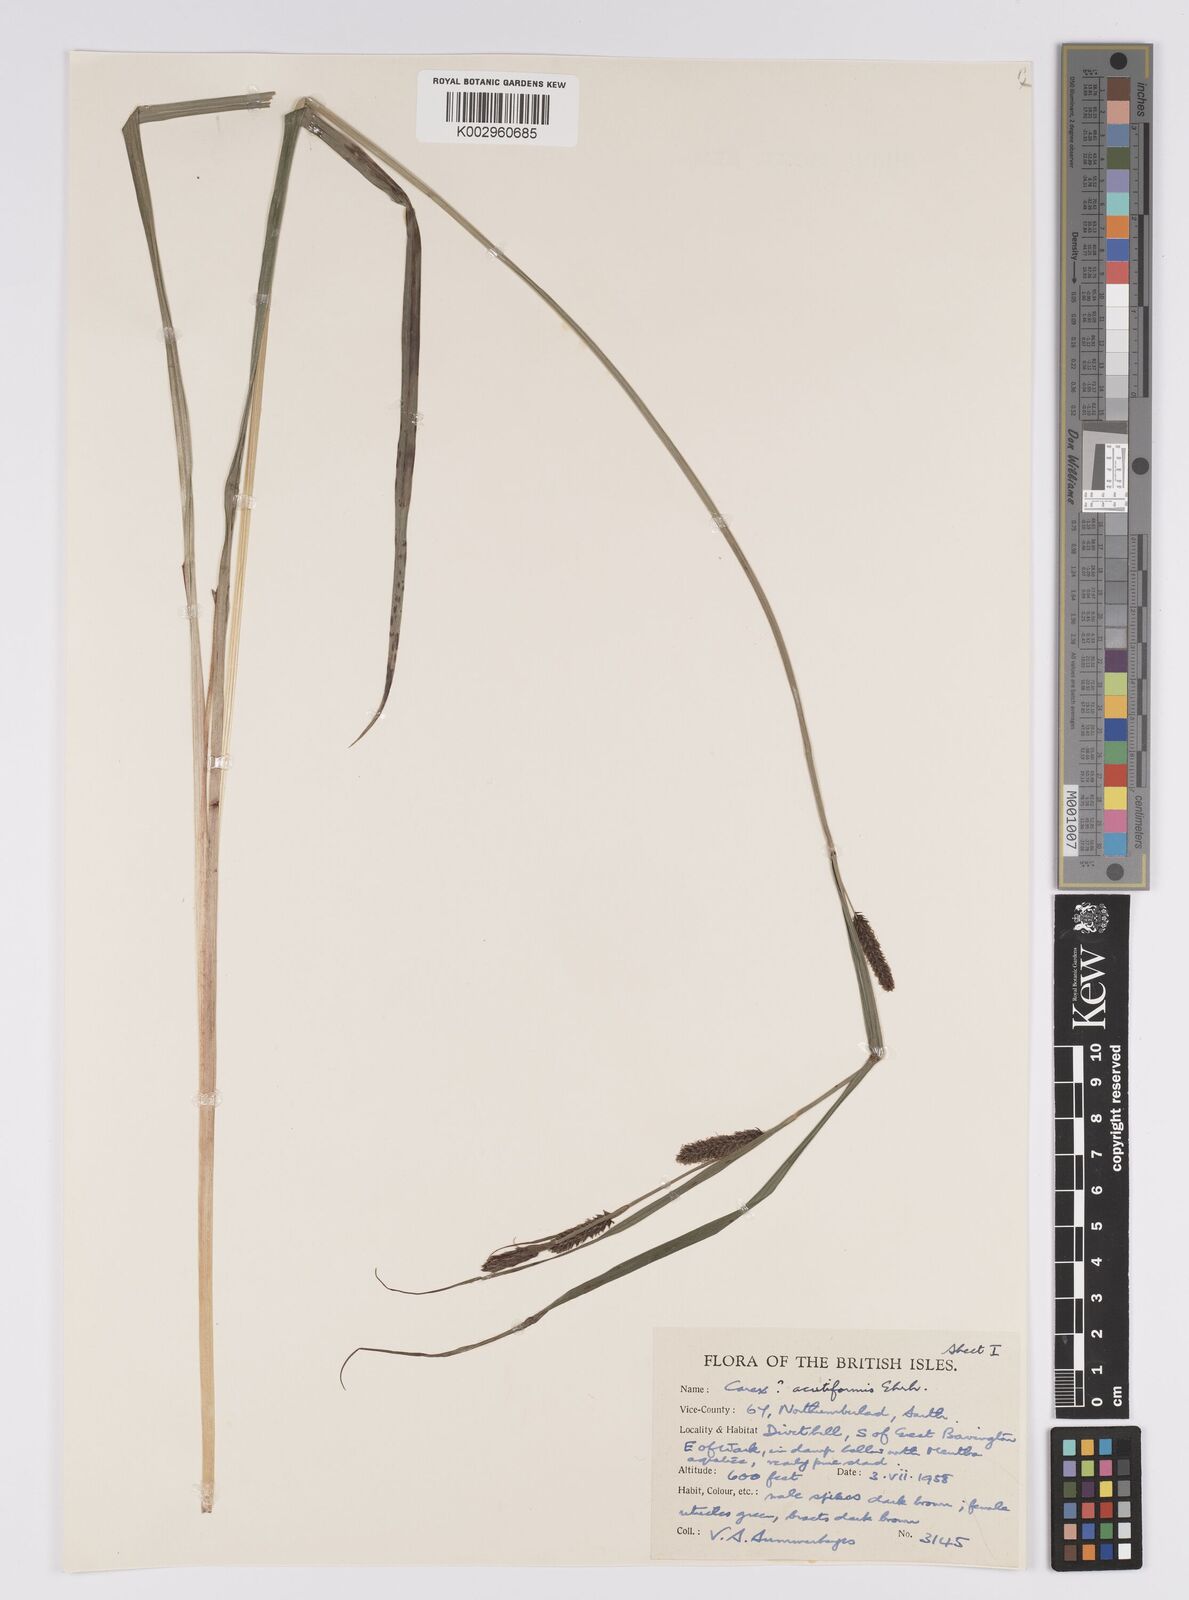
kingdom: Plantae
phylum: Tracheophyta
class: Liliopsida
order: Poales
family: Cyperaceae
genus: Carex
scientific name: Carex acutiformis
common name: Lesser pond-sedge
